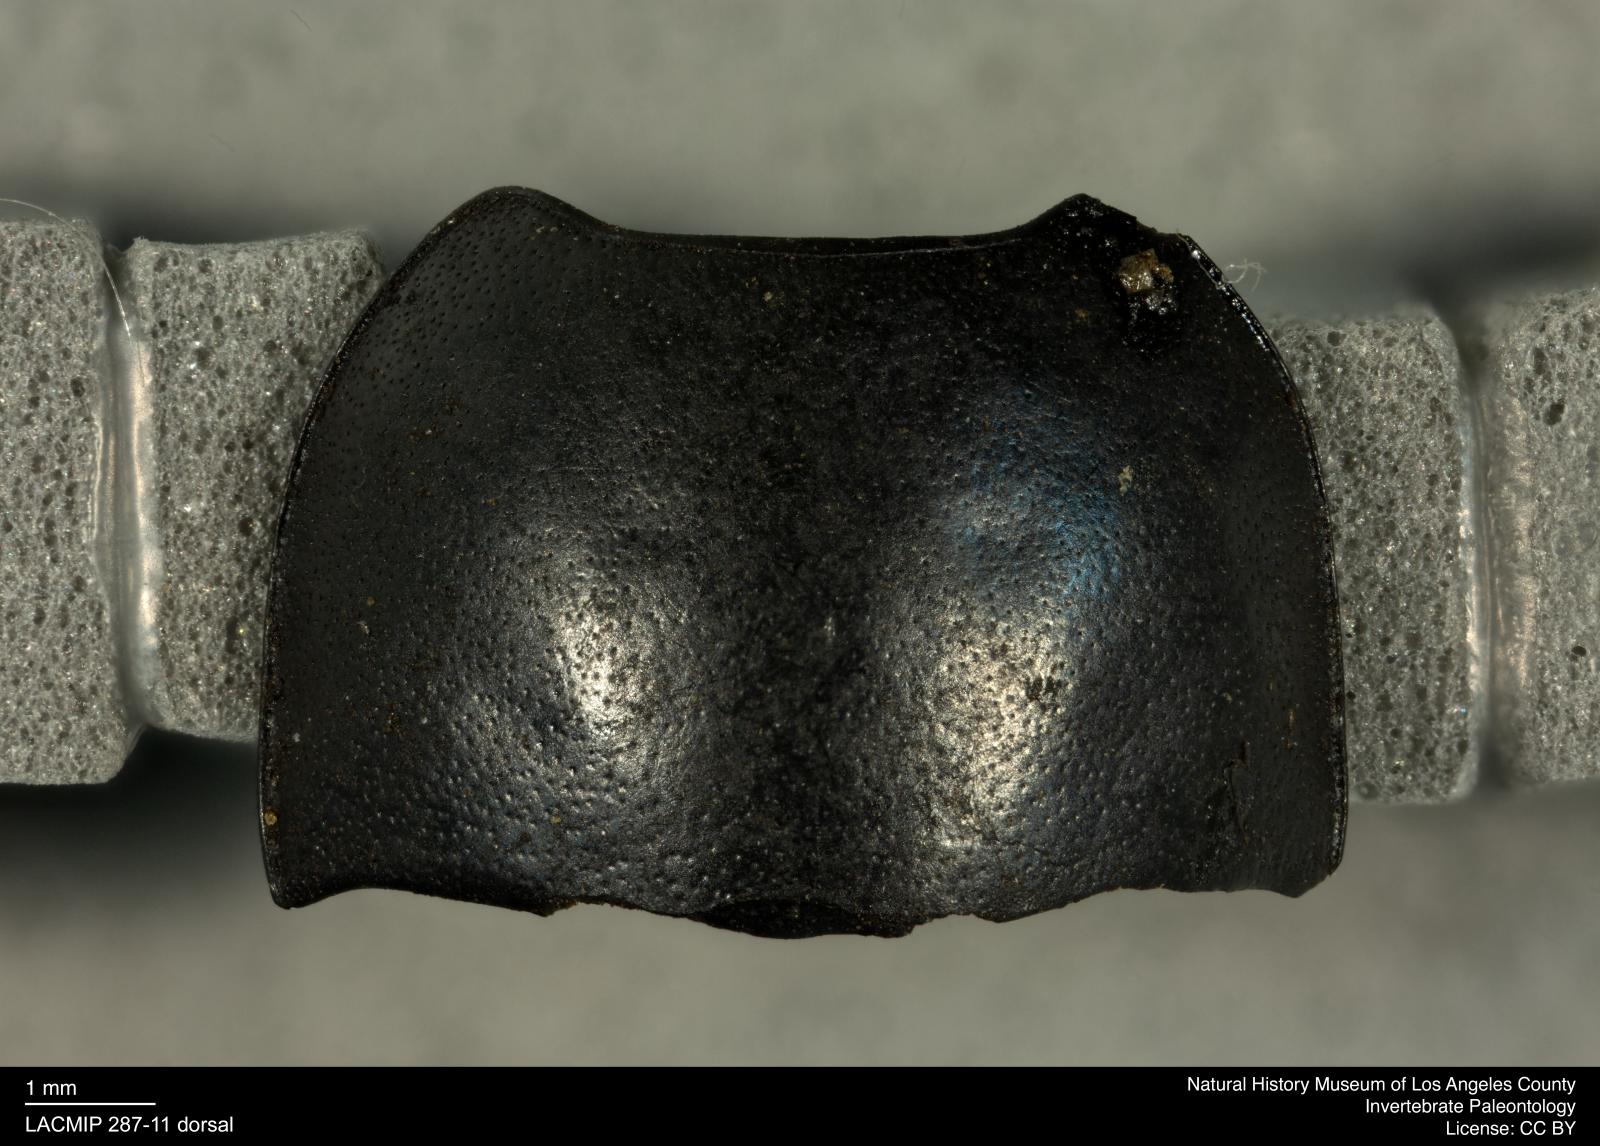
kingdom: Animalia
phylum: Arthropoda
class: Insecta
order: Coleoptera
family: Tenebrionidae
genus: Coniontis
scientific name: Coniontis abdominalis
